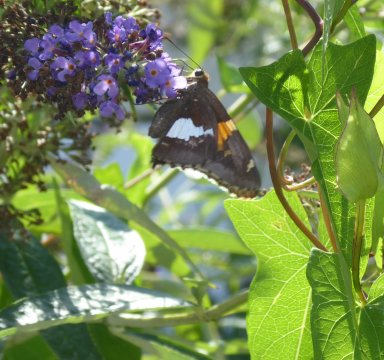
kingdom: Animalia
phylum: Arthropoda
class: Insecta
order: Lepidoptera
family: Hesperiidae
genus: Epargyreus
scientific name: Epargyreus clarus
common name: Silver-spotted Skipper
